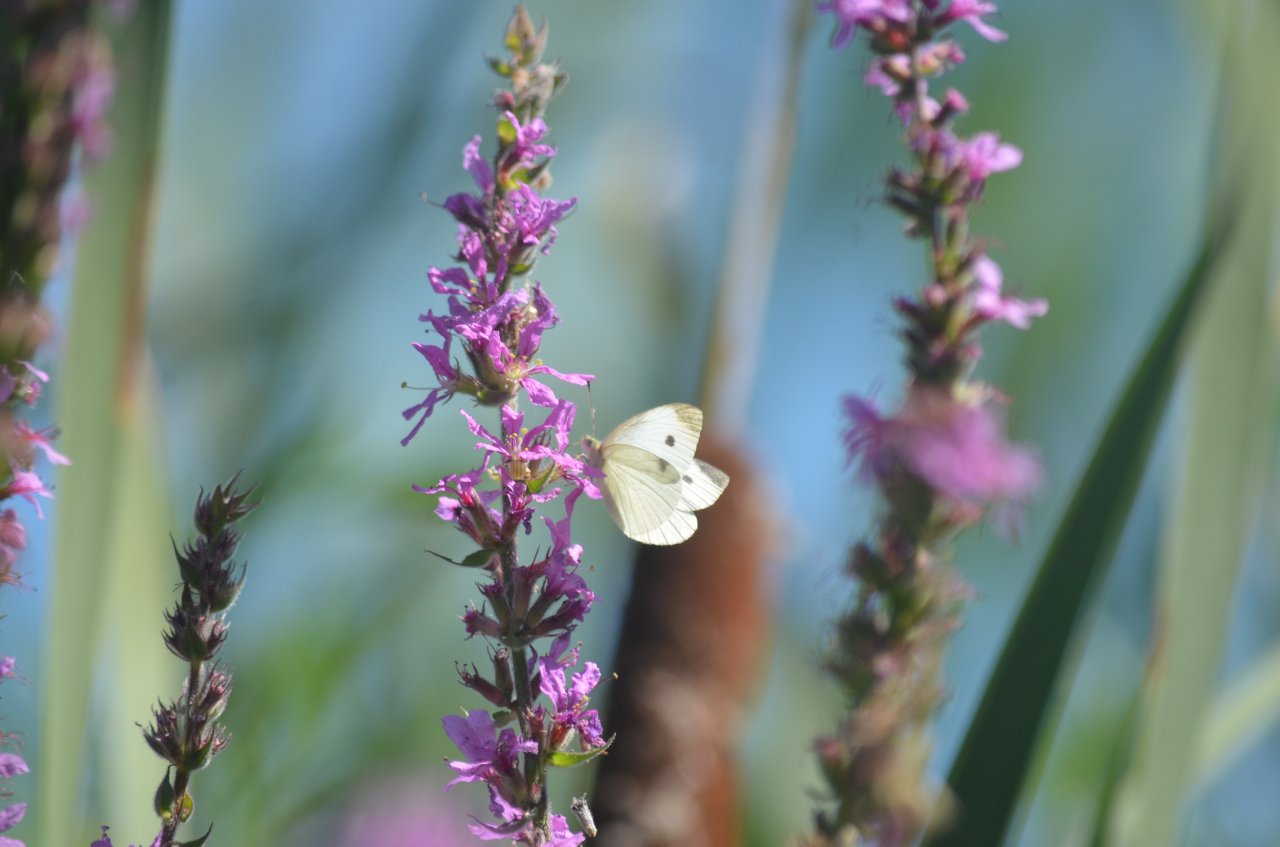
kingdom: Animalia
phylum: Arthropoda
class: Insecta
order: Lepidoptera
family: Pieridae
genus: Pieris
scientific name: Pieris rapae
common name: Cabbage White
